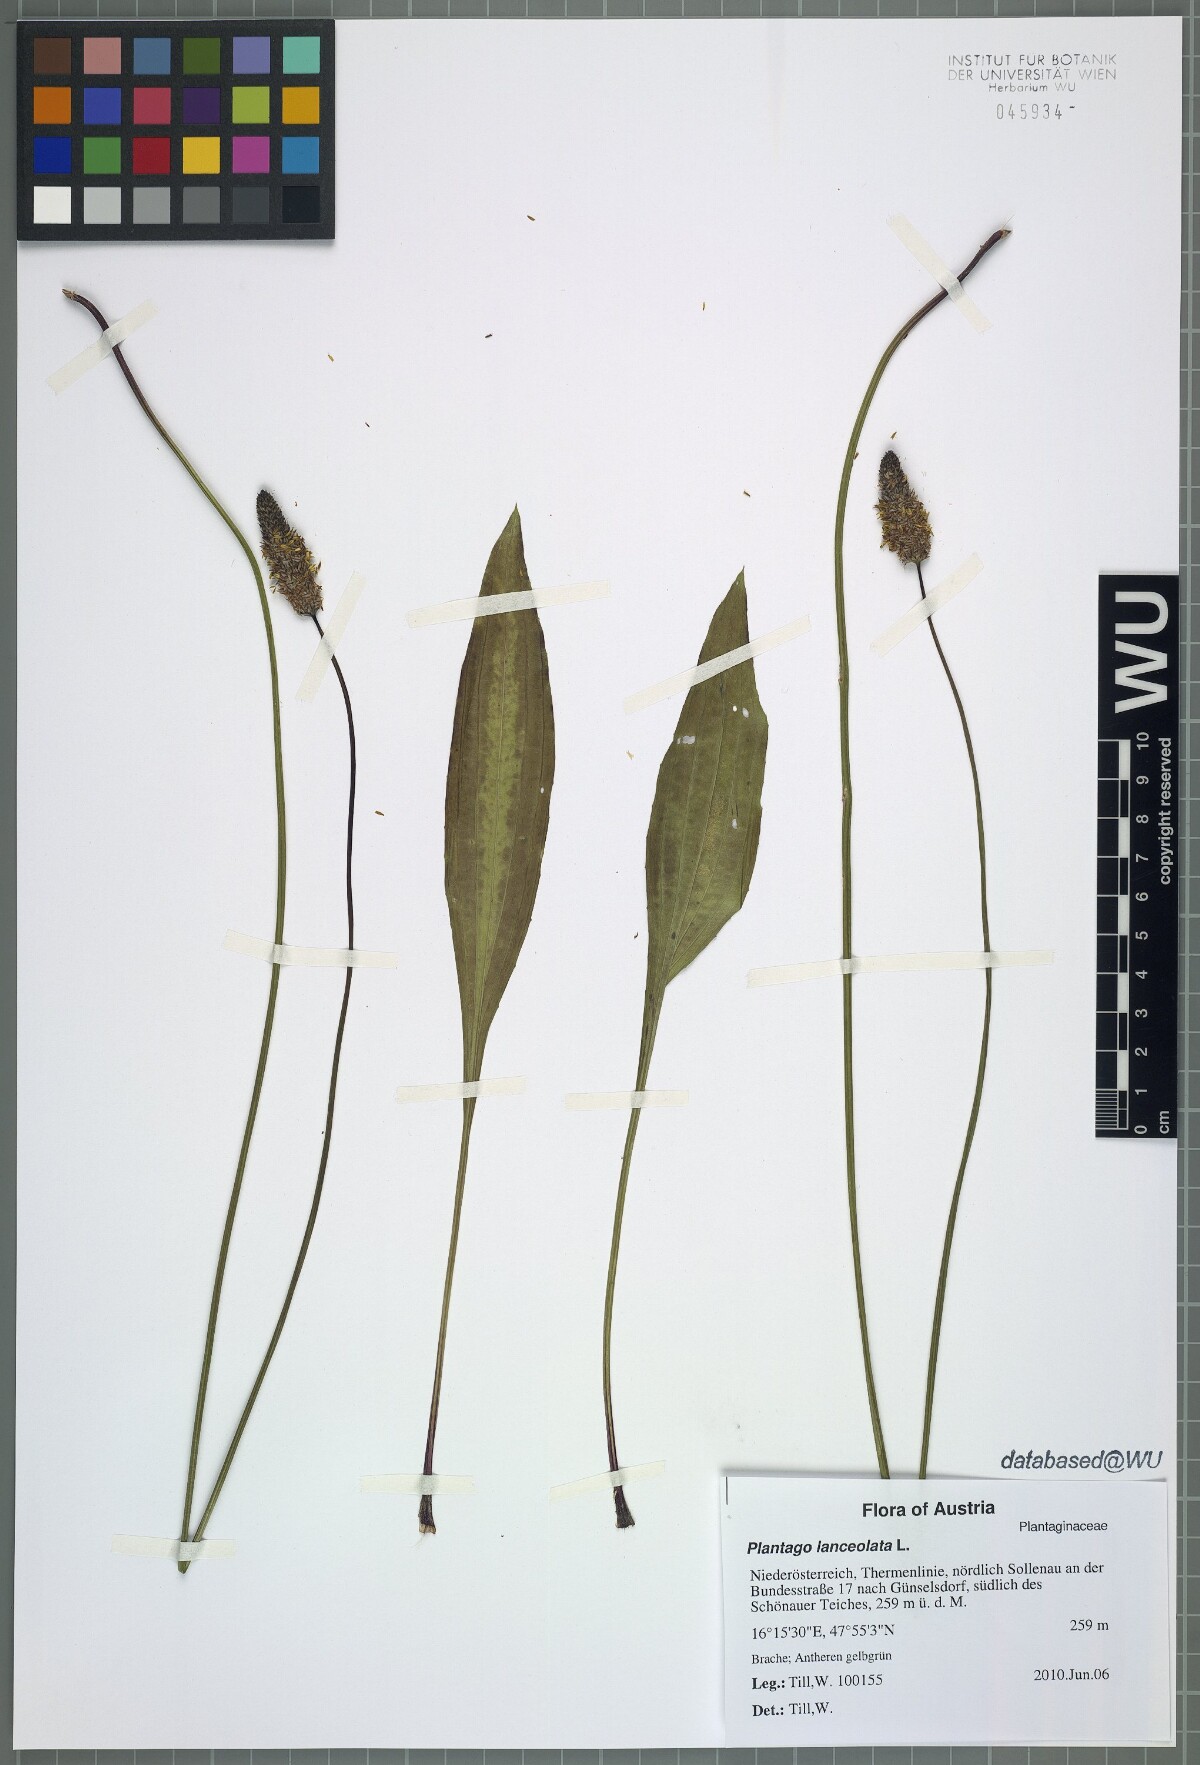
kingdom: Plantae
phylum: Tracheophyta
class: Magnoliopsida
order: Lamiales
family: Plantaginaceae
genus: Plantago
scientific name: Plantago lanceolata
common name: Ribwort plantain
